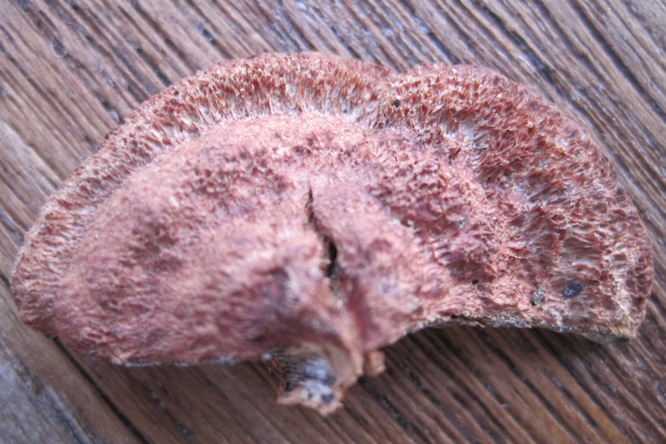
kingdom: Fungi
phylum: Basidiomycota
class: Agaricomycetes
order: Polyporales
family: Phanerochaetaceae
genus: Hapalopilus
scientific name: Hapalopilus rutilans
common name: rødlig okkerporesvamp
